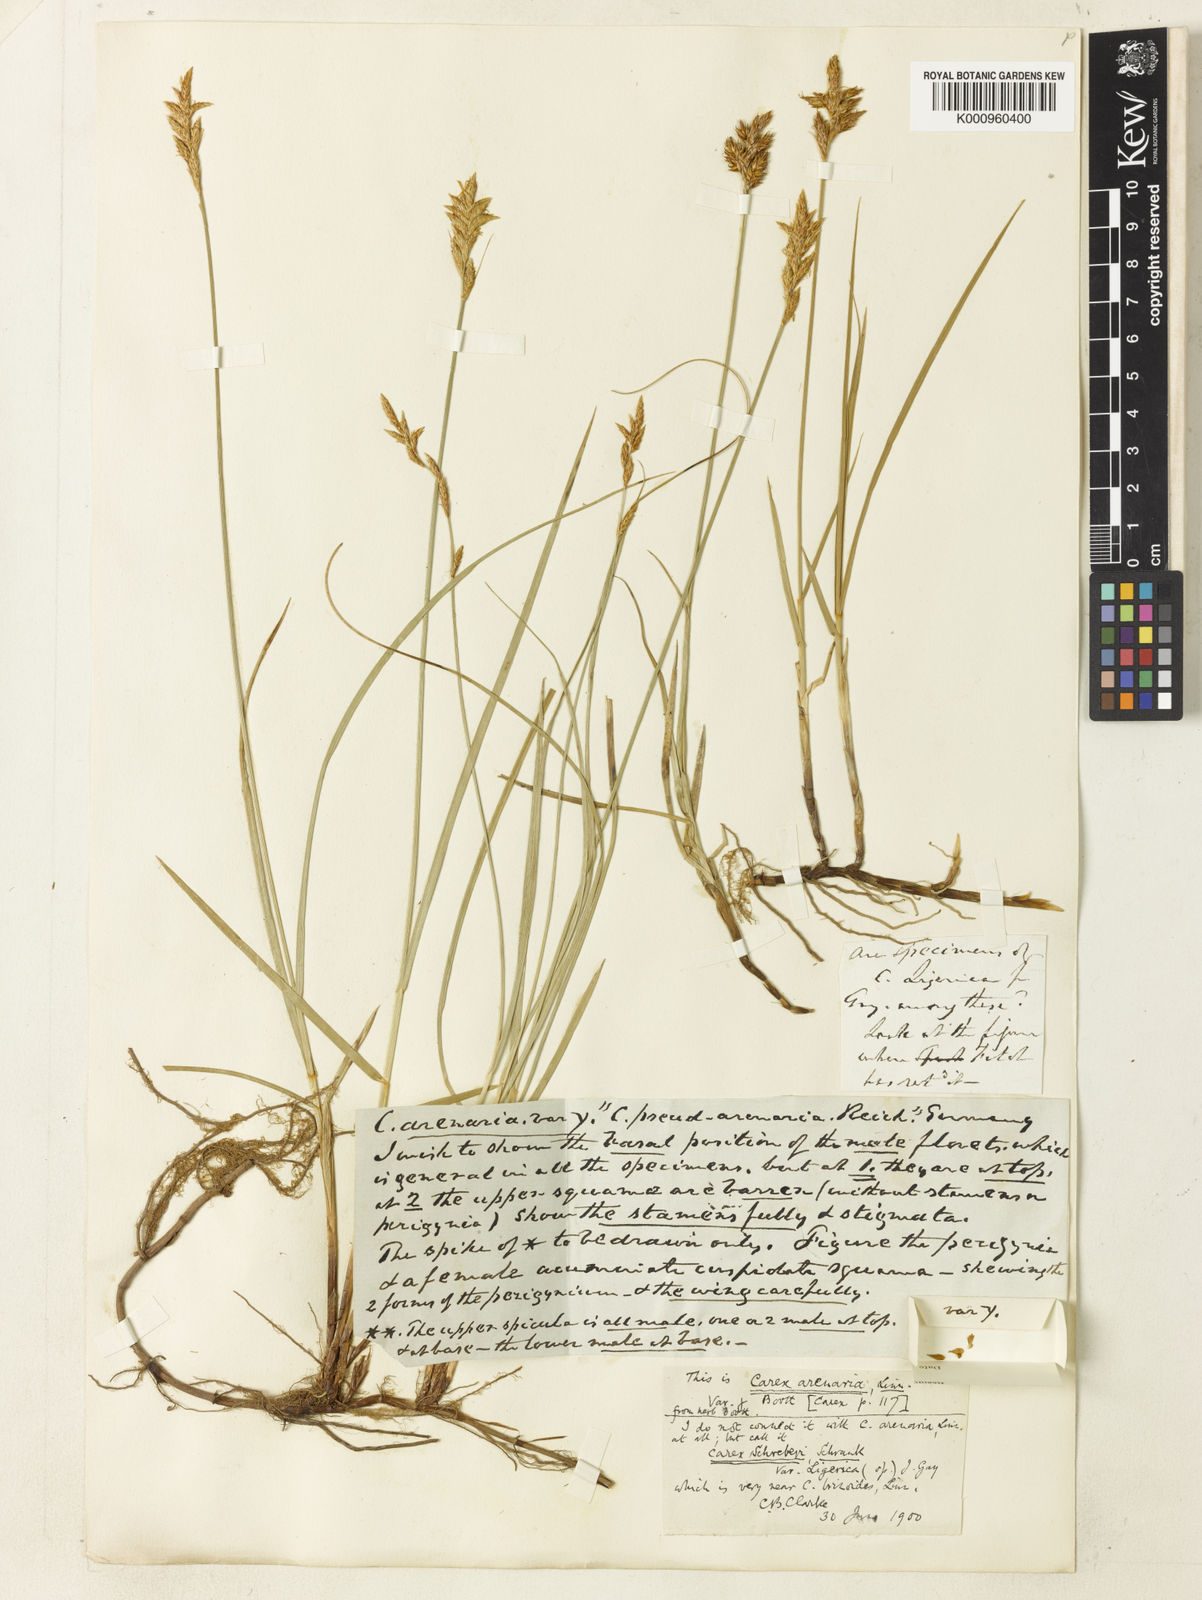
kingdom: Plantae
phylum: Tracheophyta
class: Liliopsida
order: Poales
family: Cyperaceae
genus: Carex
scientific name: Carex
